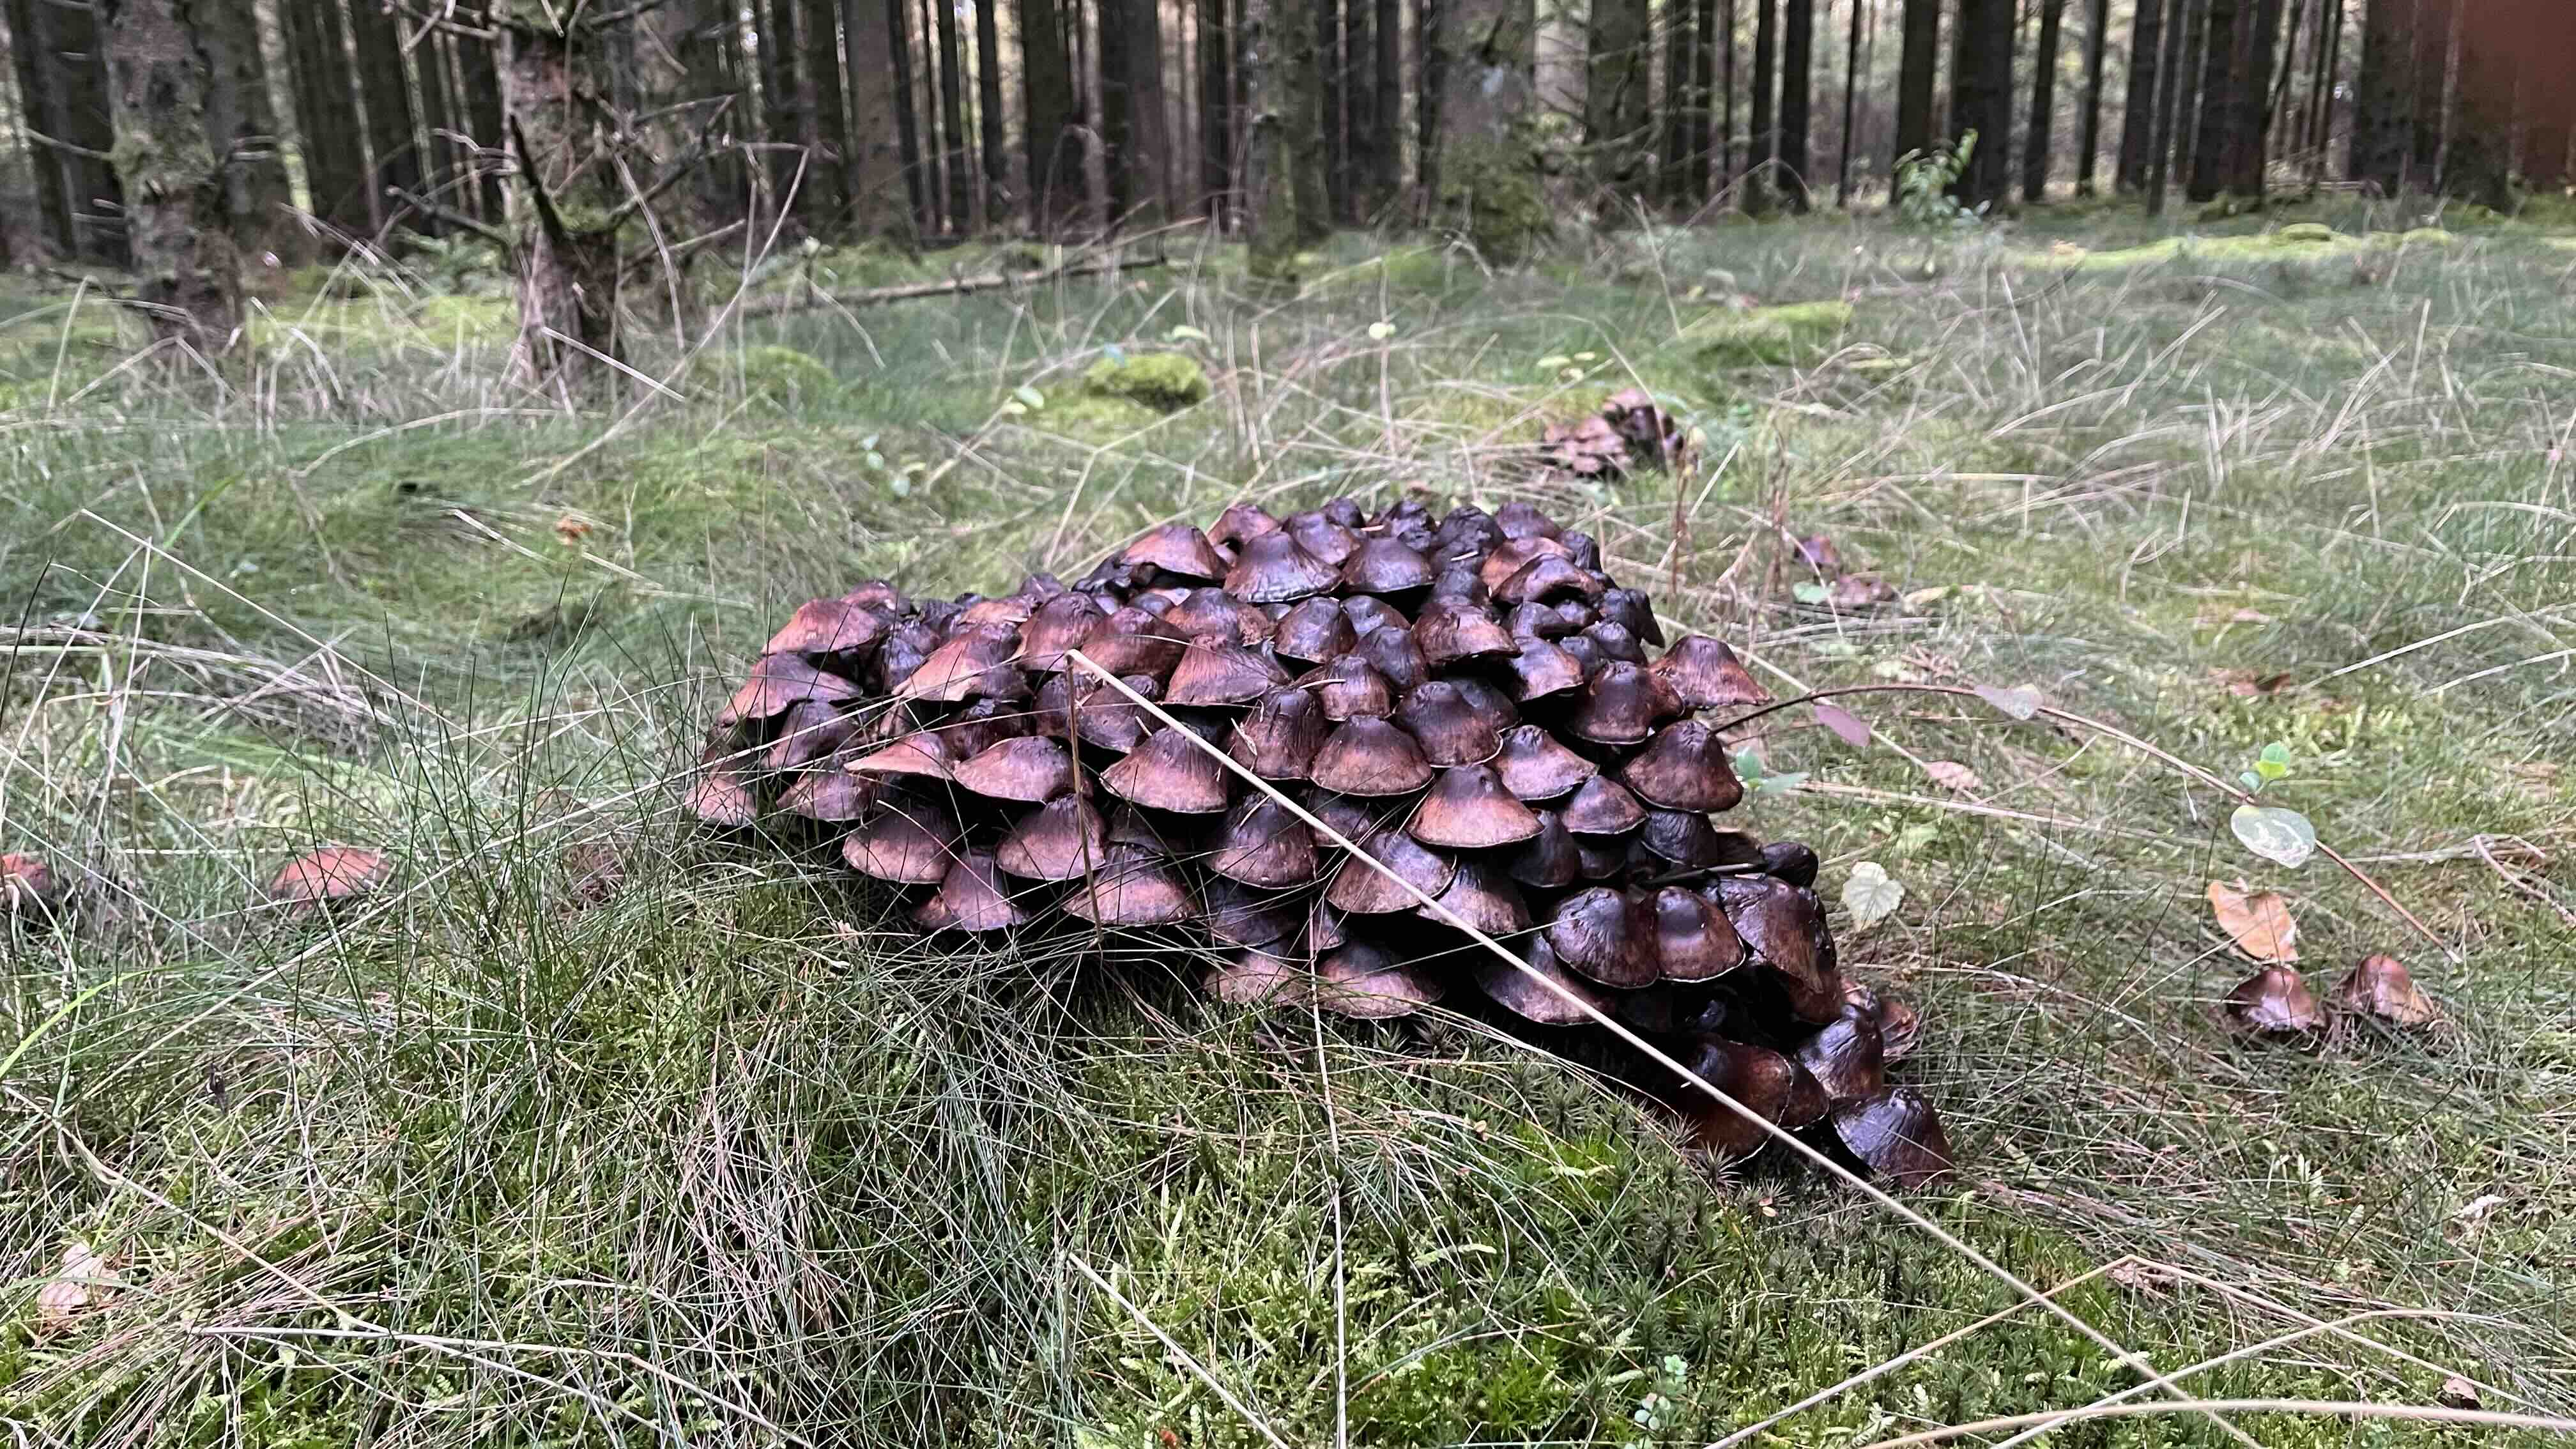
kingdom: Fungi
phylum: Basidiomycota
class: Agaricomycetes
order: Agaricales
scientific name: Agaricales
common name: champignonordenen
